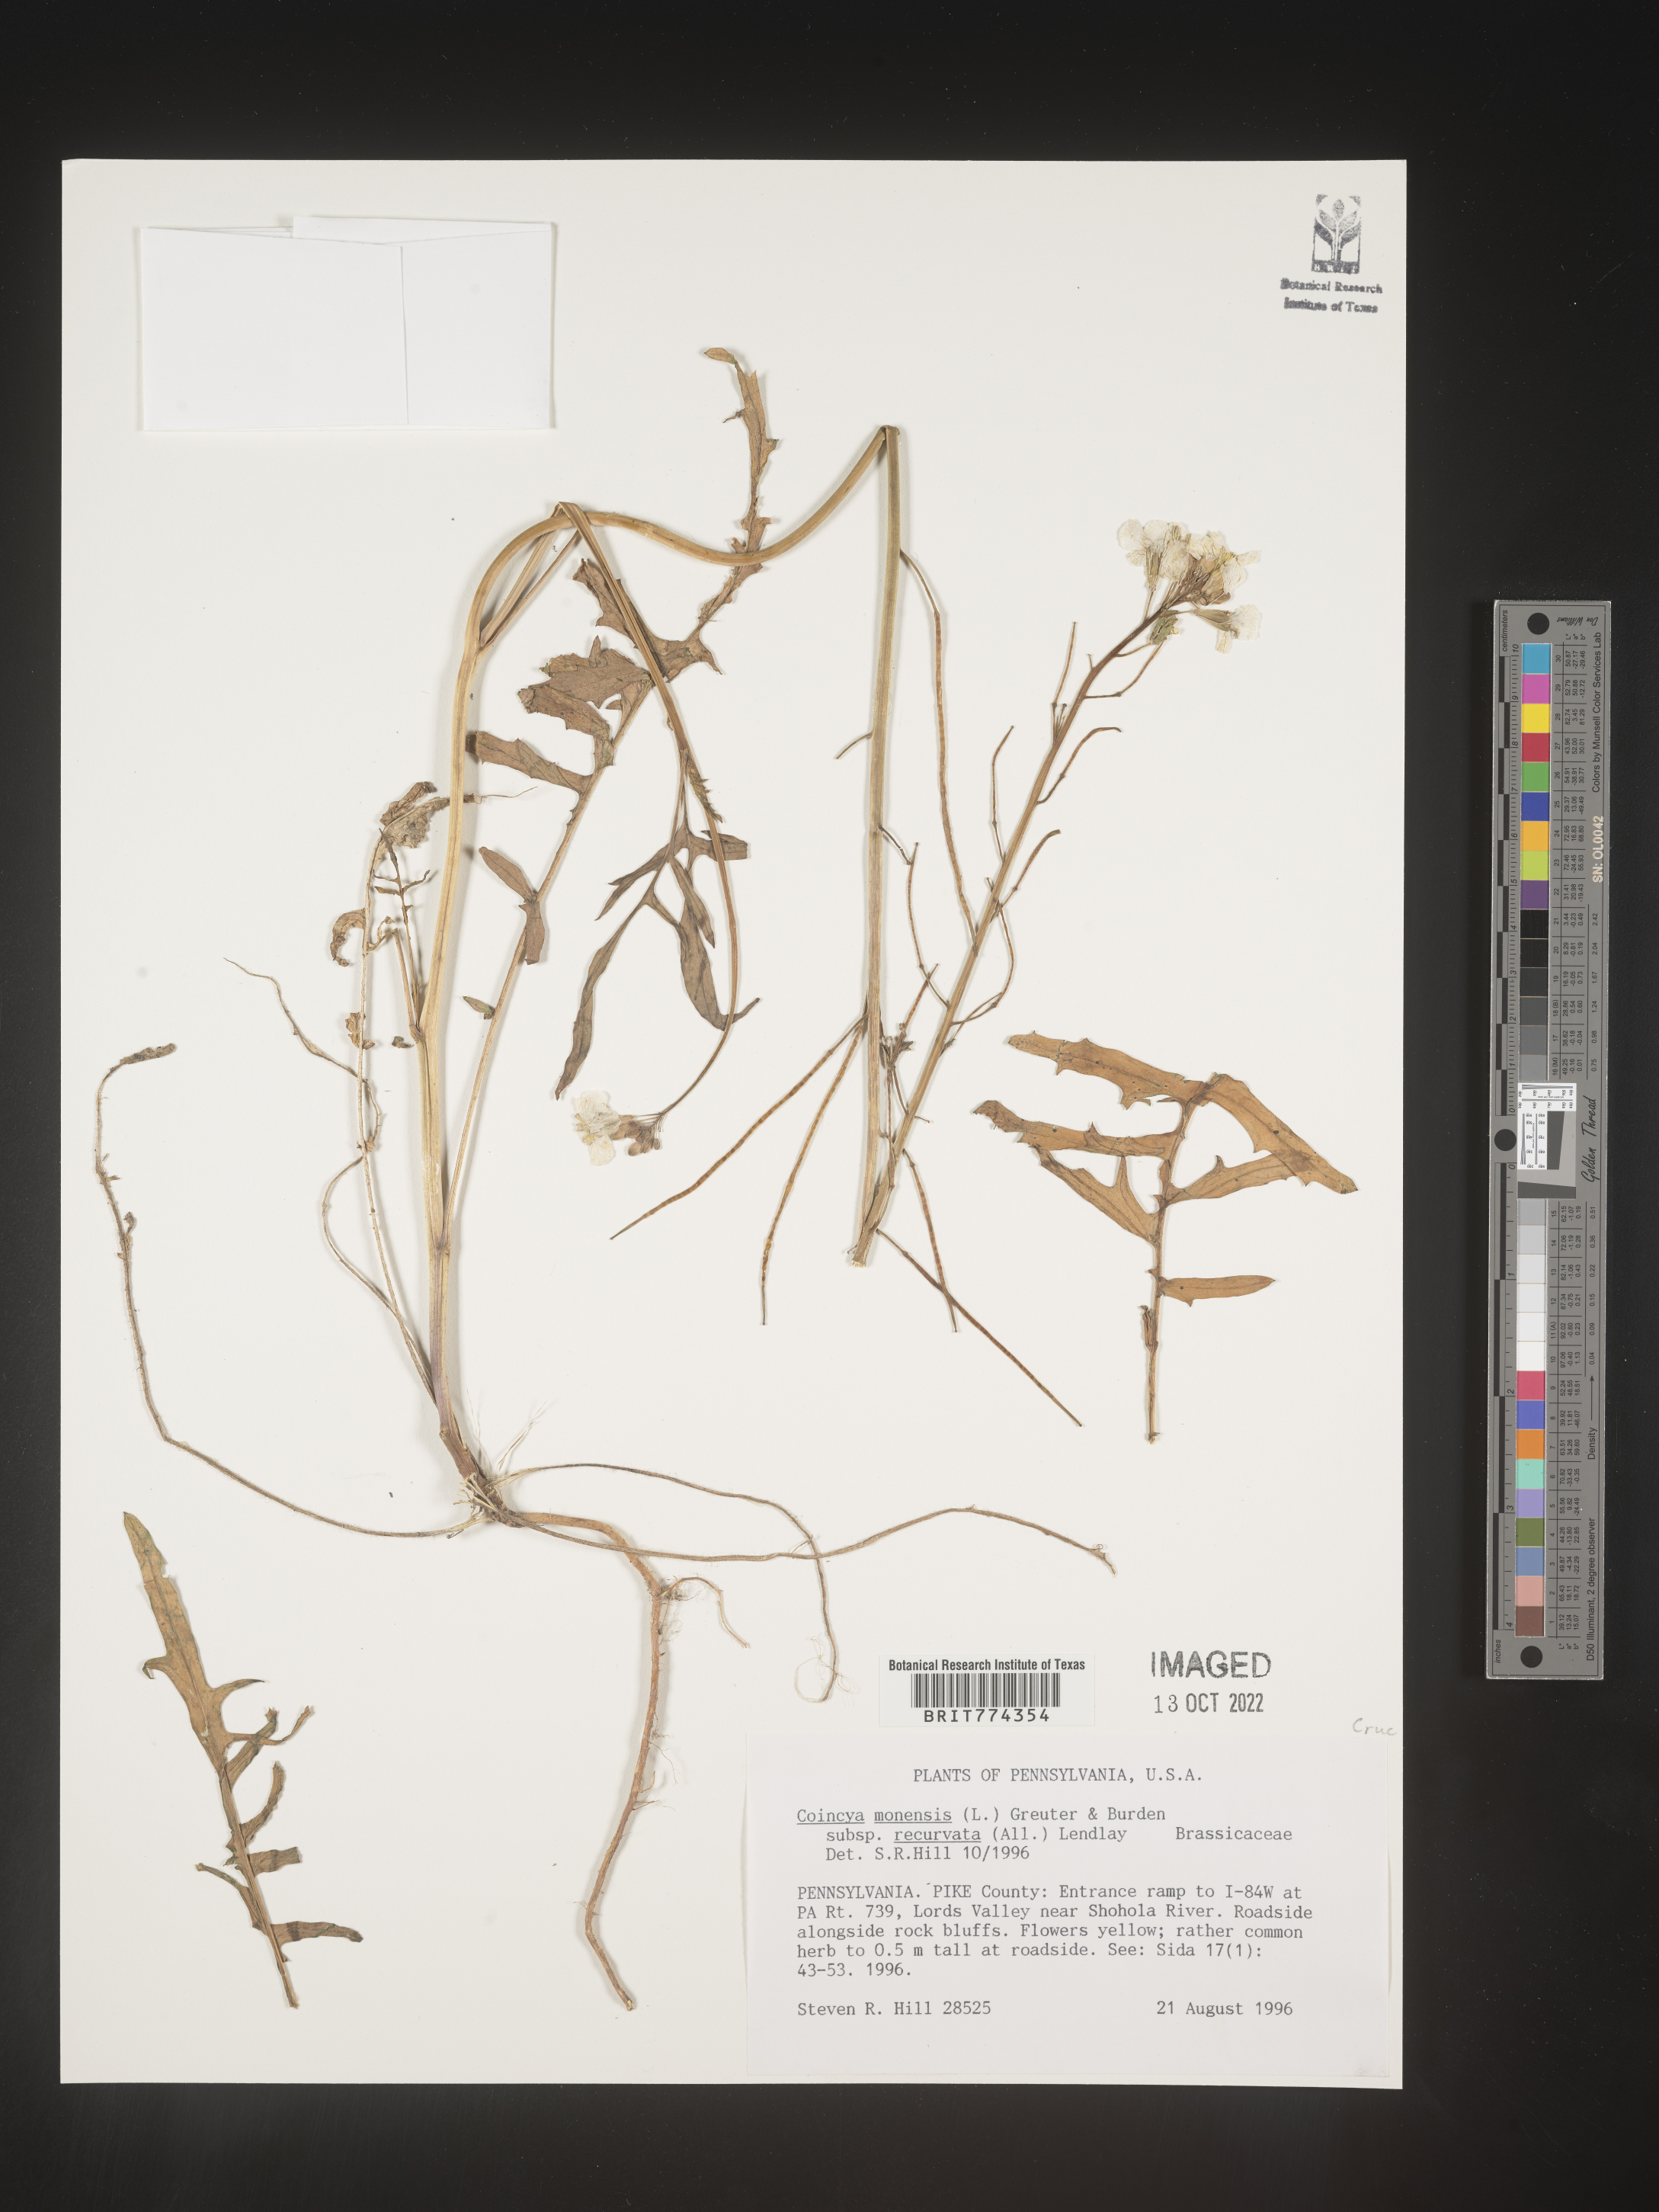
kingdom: Plantae
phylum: Tracheophyta
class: Magnoliopsida
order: Brassicales
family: Brassicaceae
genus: Coincya
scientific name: Coincya
